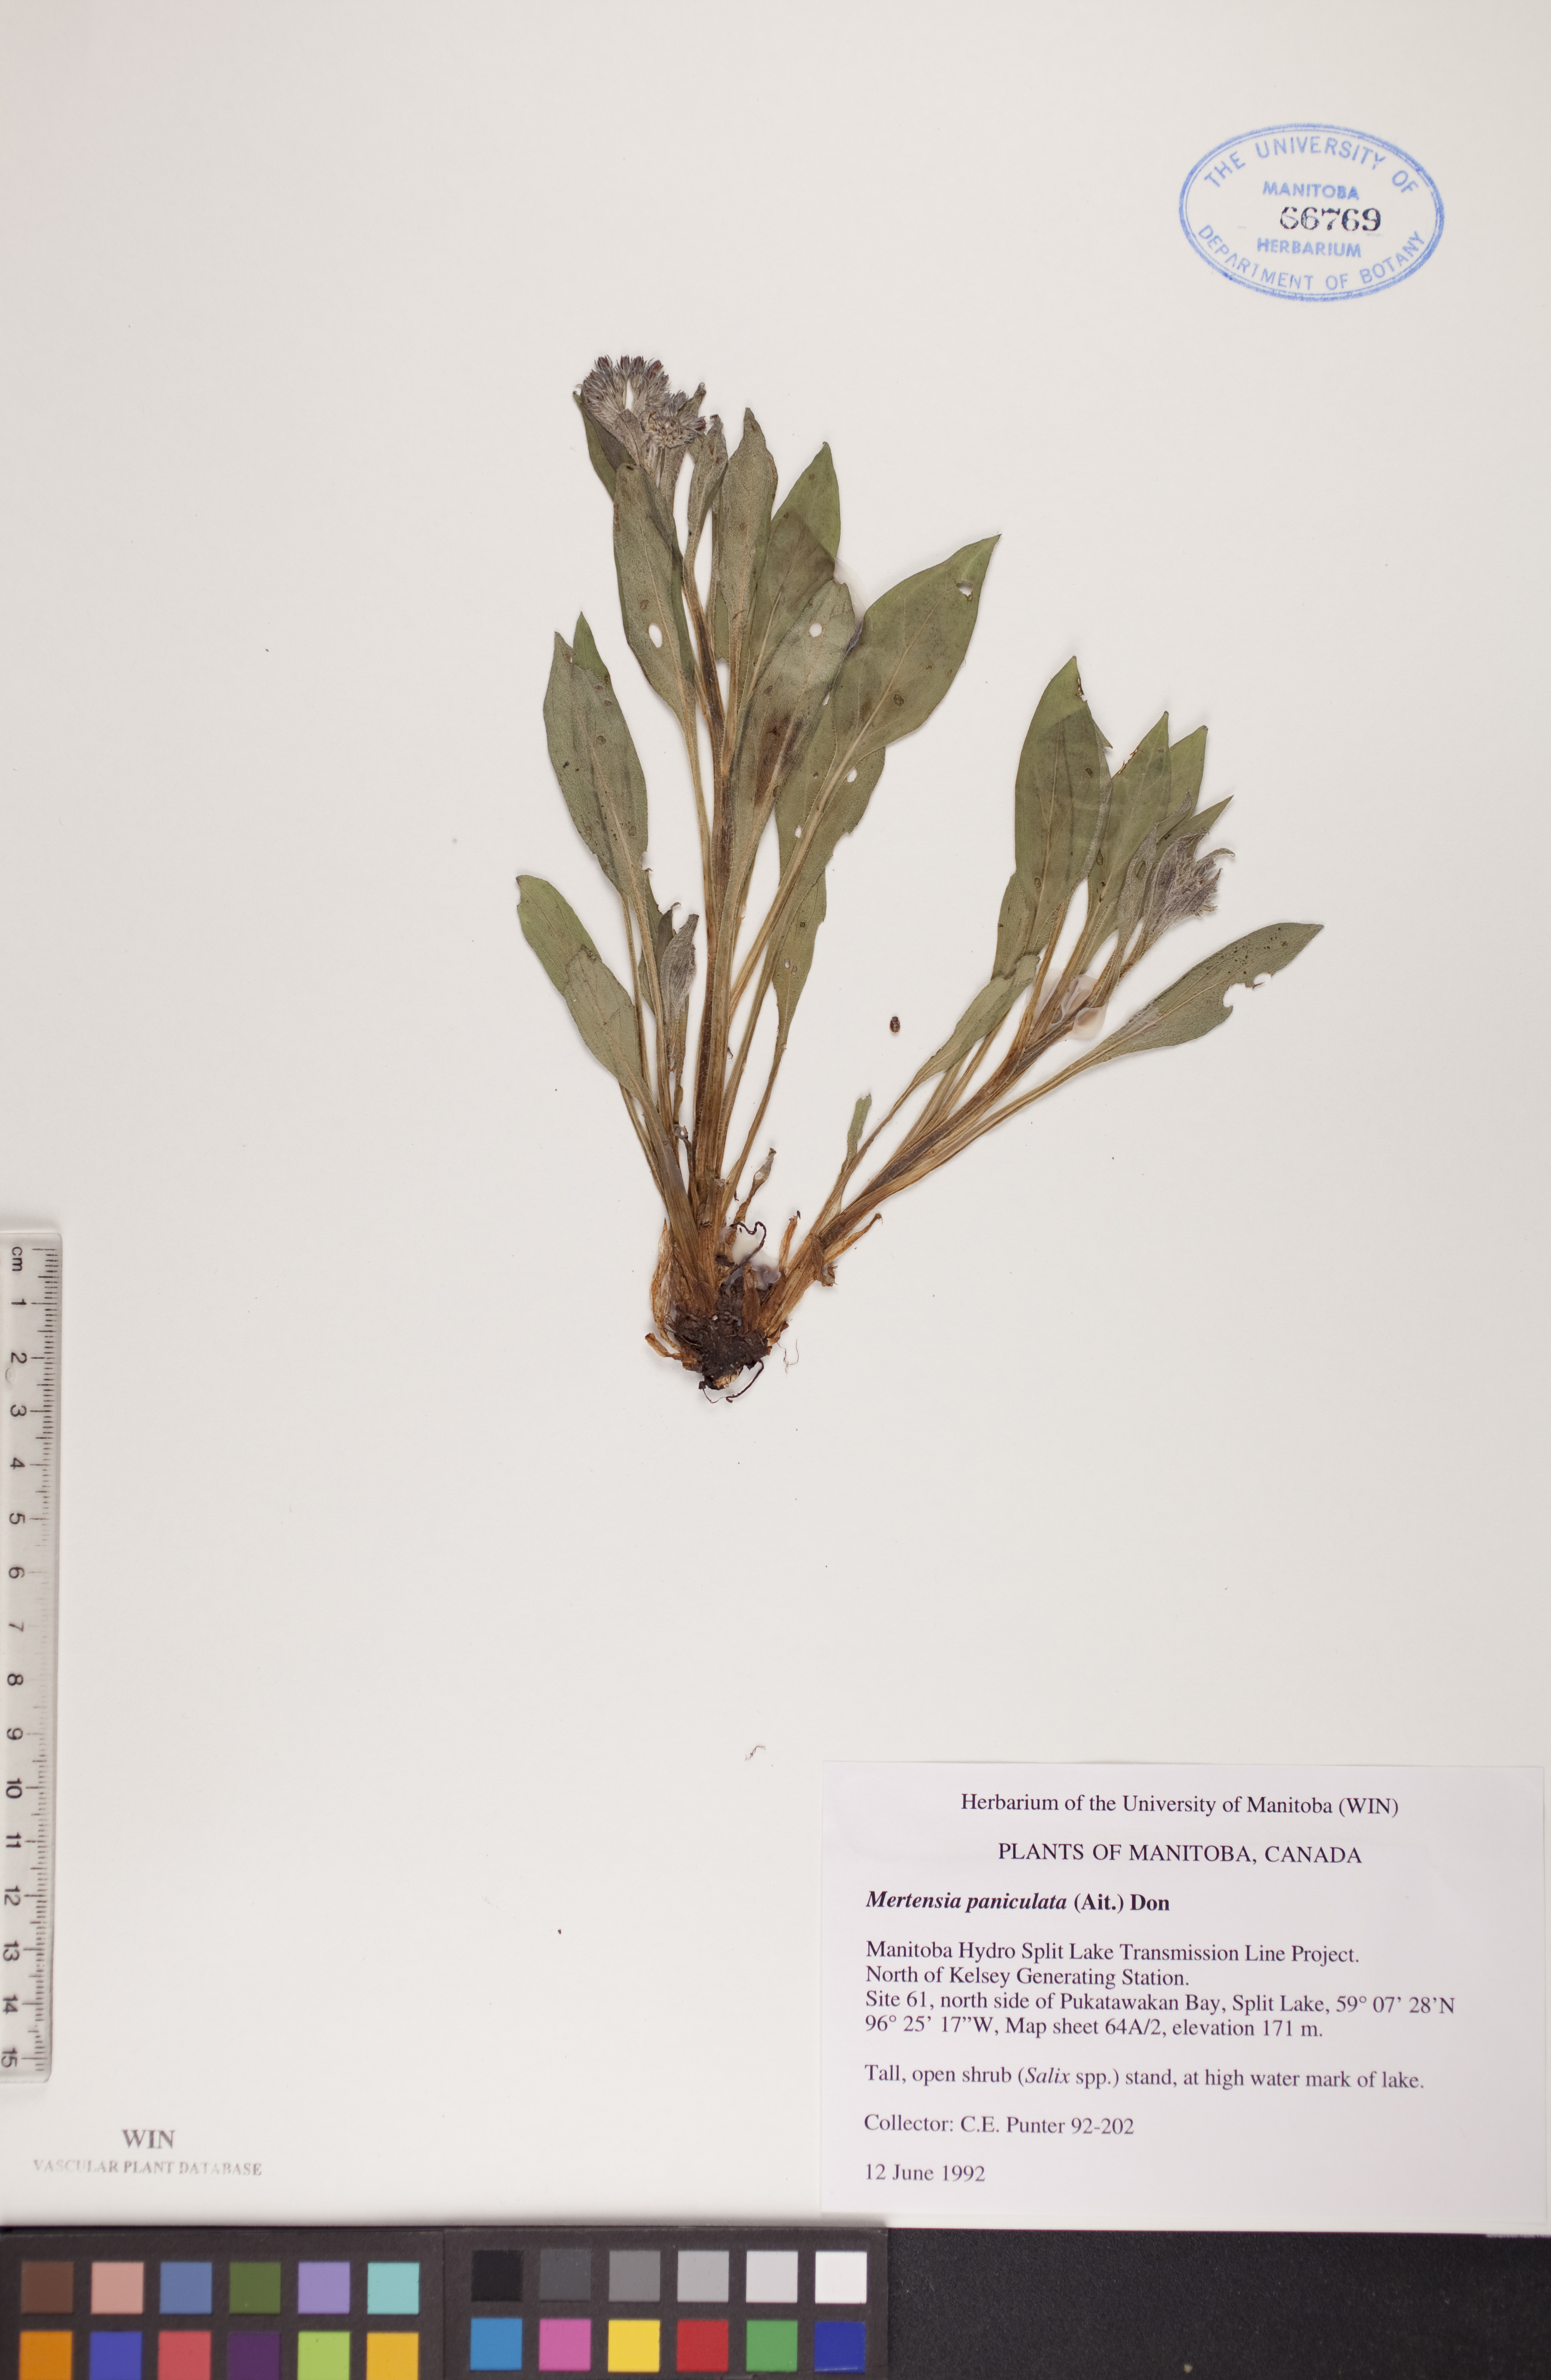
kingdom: Plantae
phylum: Tracheophyta
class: Magnoliopsida
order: Boraginales
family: Boraginaceae
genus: Mertensia
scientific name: Mertensia paniculata
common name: Panicled bluebells
